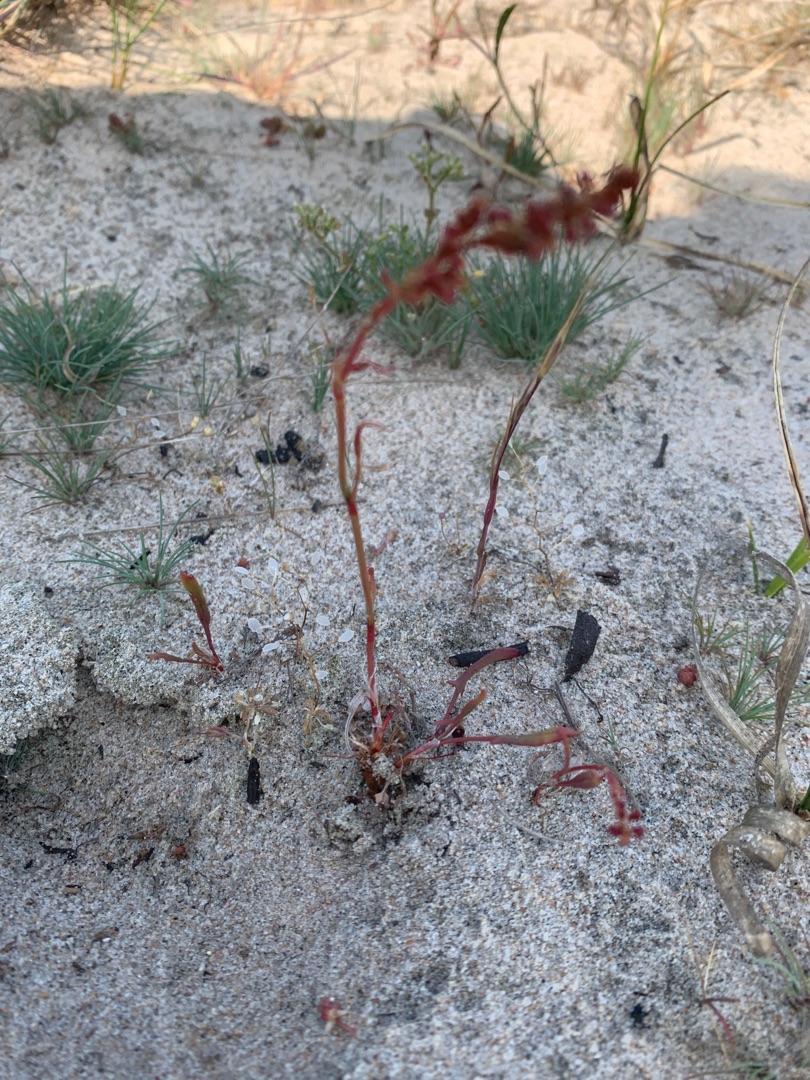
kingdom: Plantae
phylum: Tracheophyta
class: Magnoliopsida
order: Caryophyllales
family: Polygonaceae
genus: Rumex
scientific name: Rumex acetosella
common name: Rødknæ
